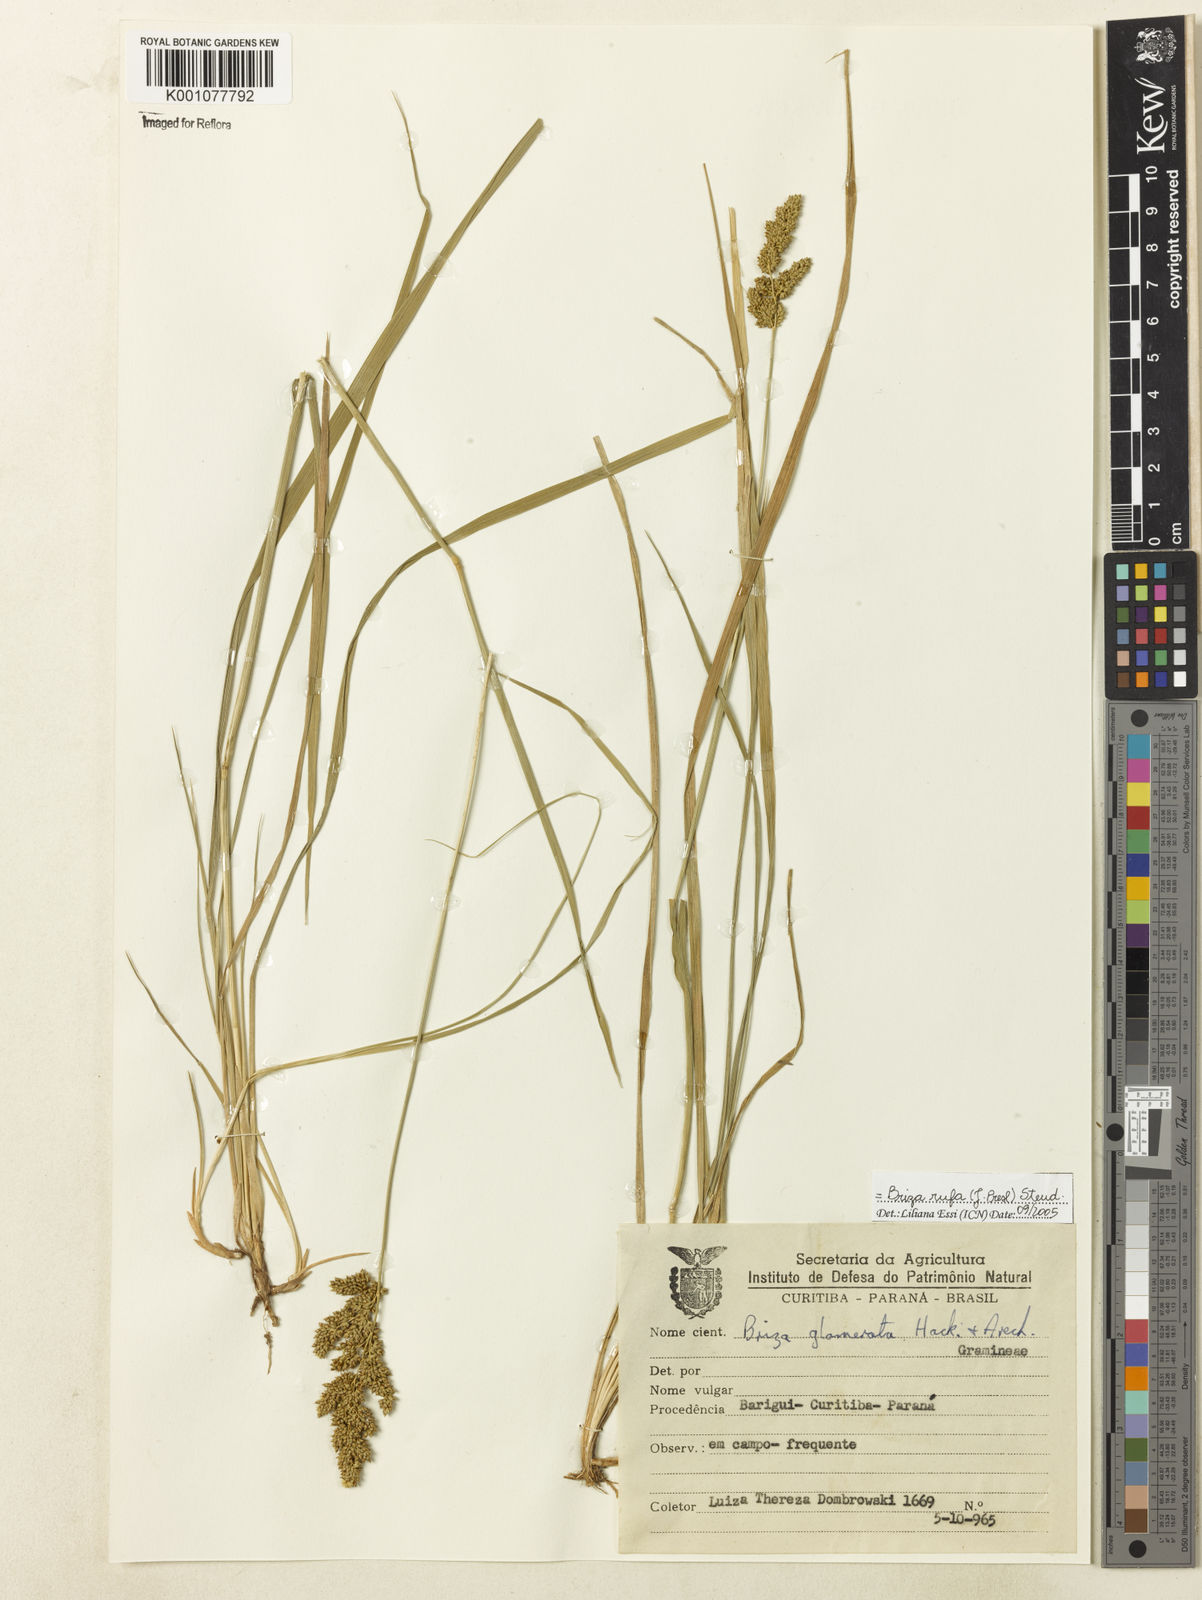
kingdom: Plantae
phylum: Tracheophyta
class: Liliopsida
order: Poales
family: Poaceae
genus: Lombardochloa
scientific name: Lombardochloa rufa
